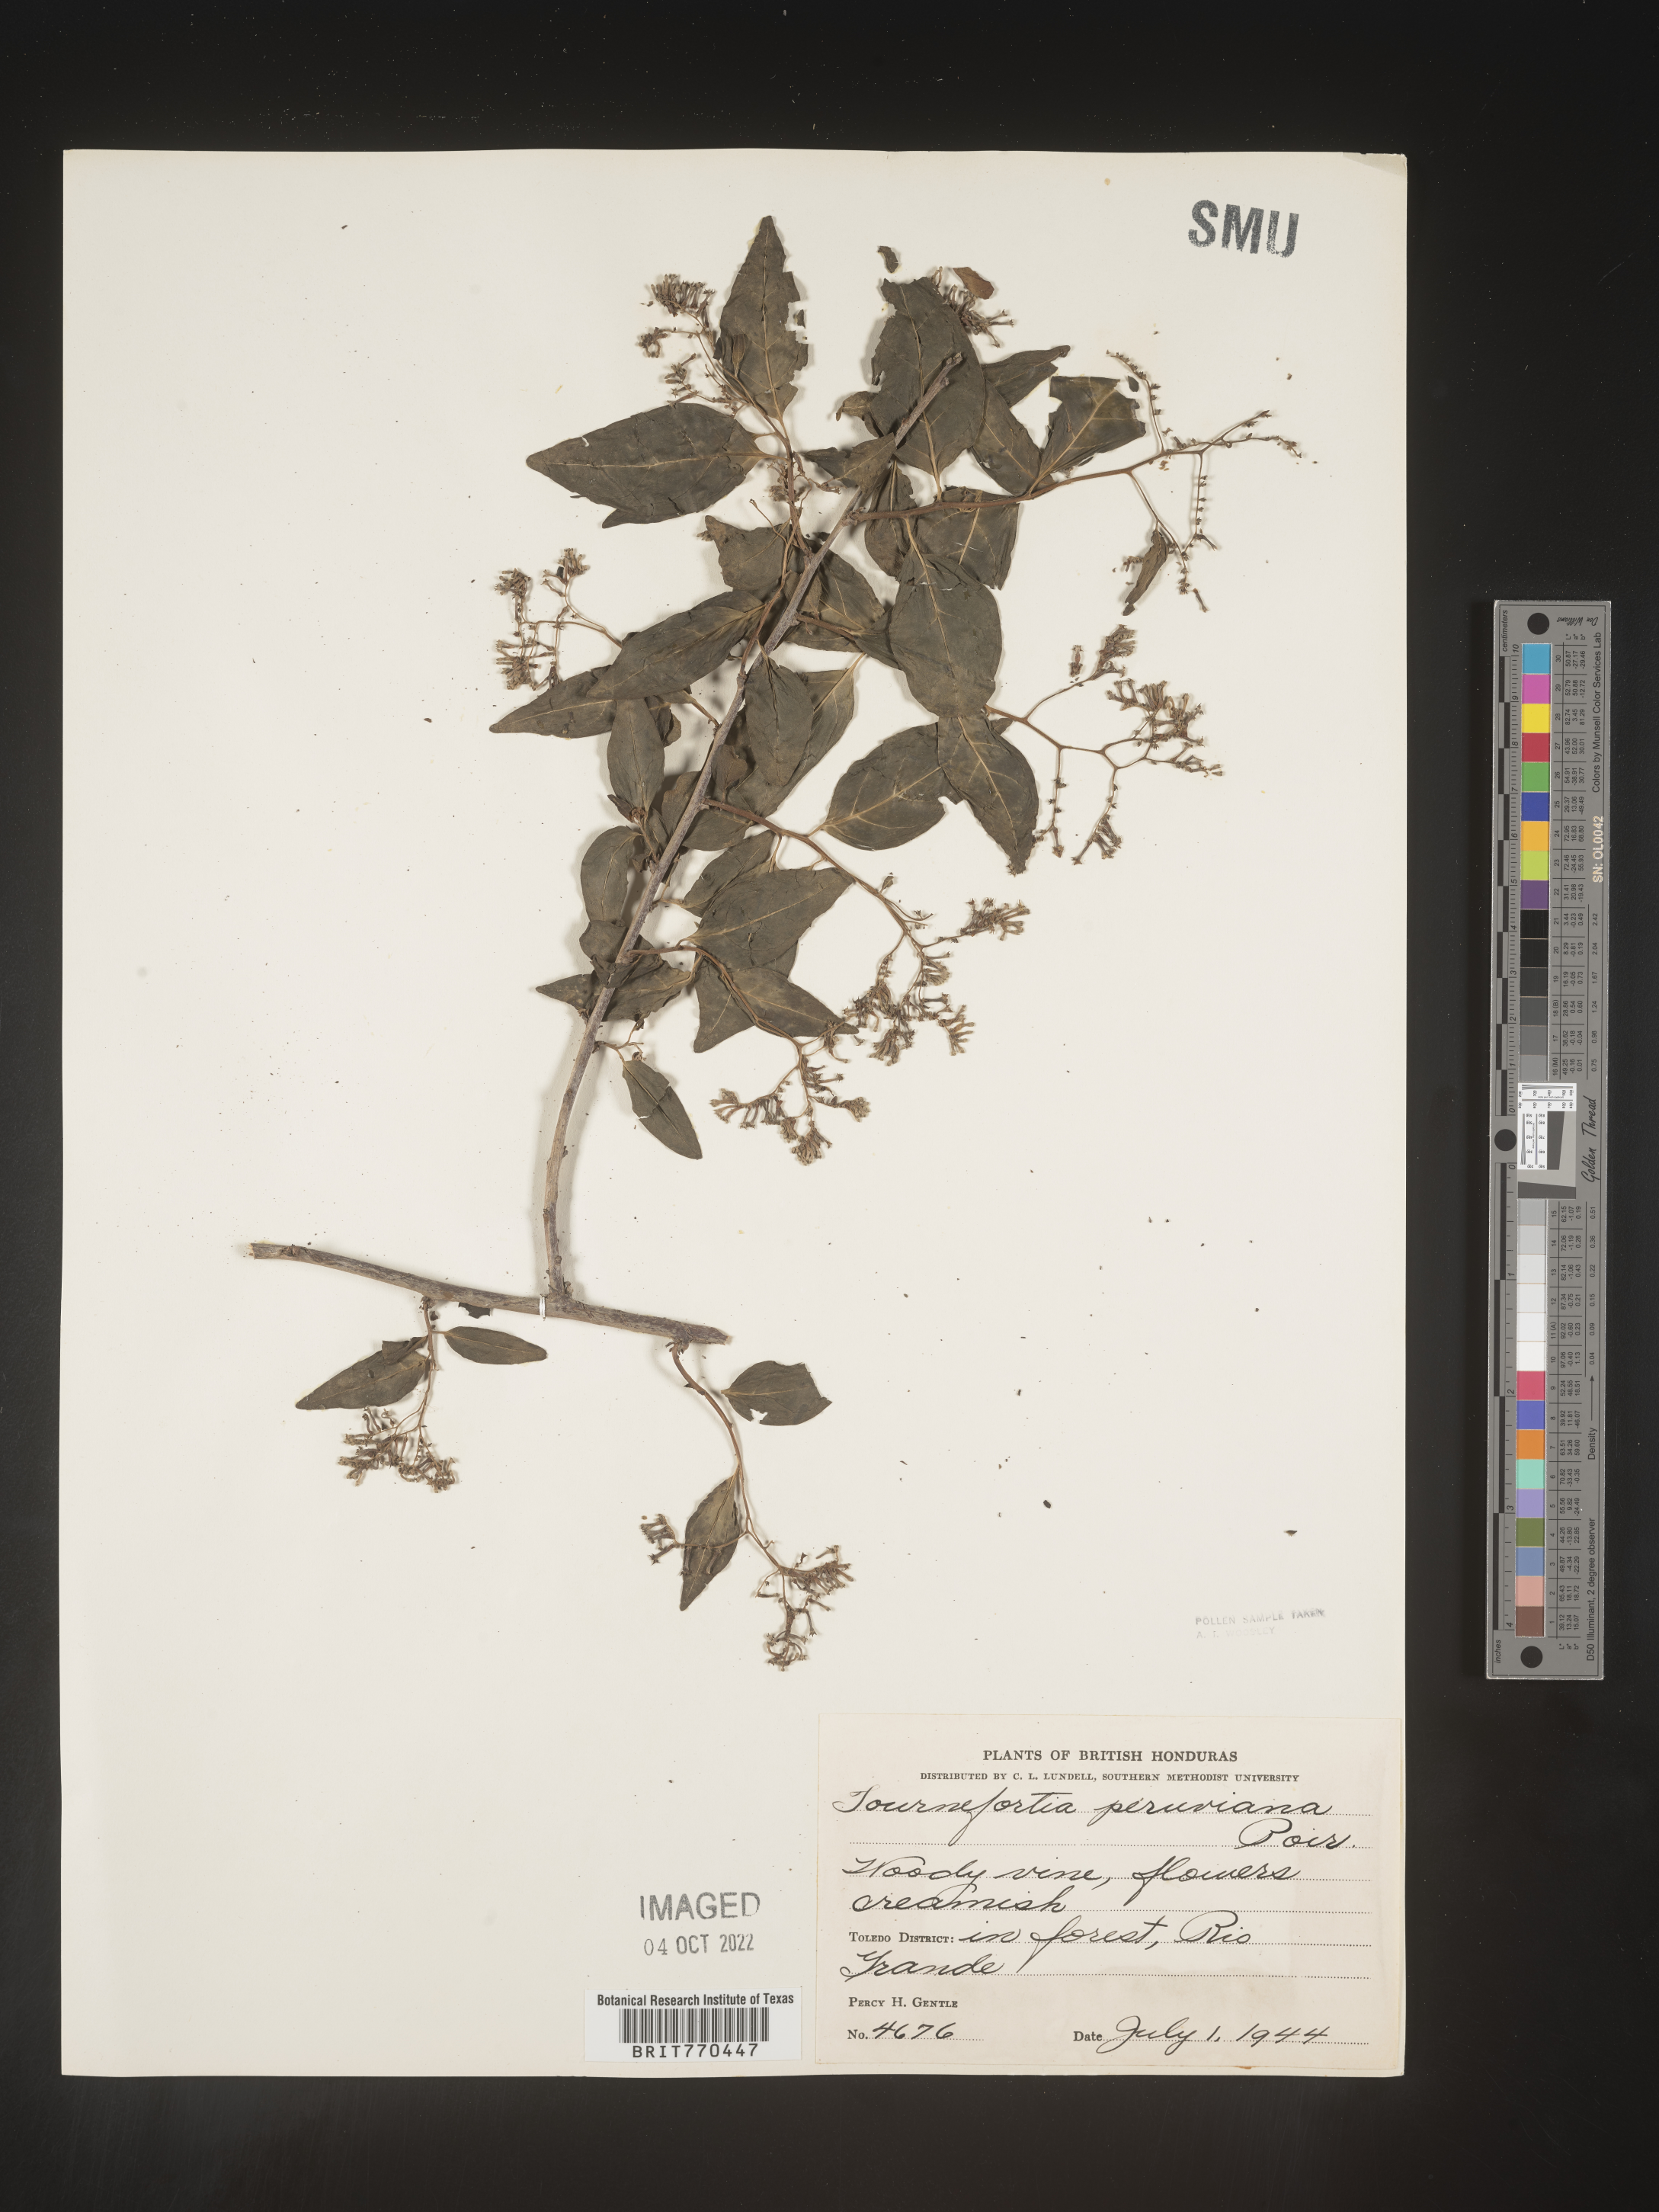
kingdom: Plantae
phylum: Tracheophyta
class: Magnoliopsida
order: Boraginales
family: Heliotropiaceae
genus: Tournefortia
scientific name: Tournefortia
